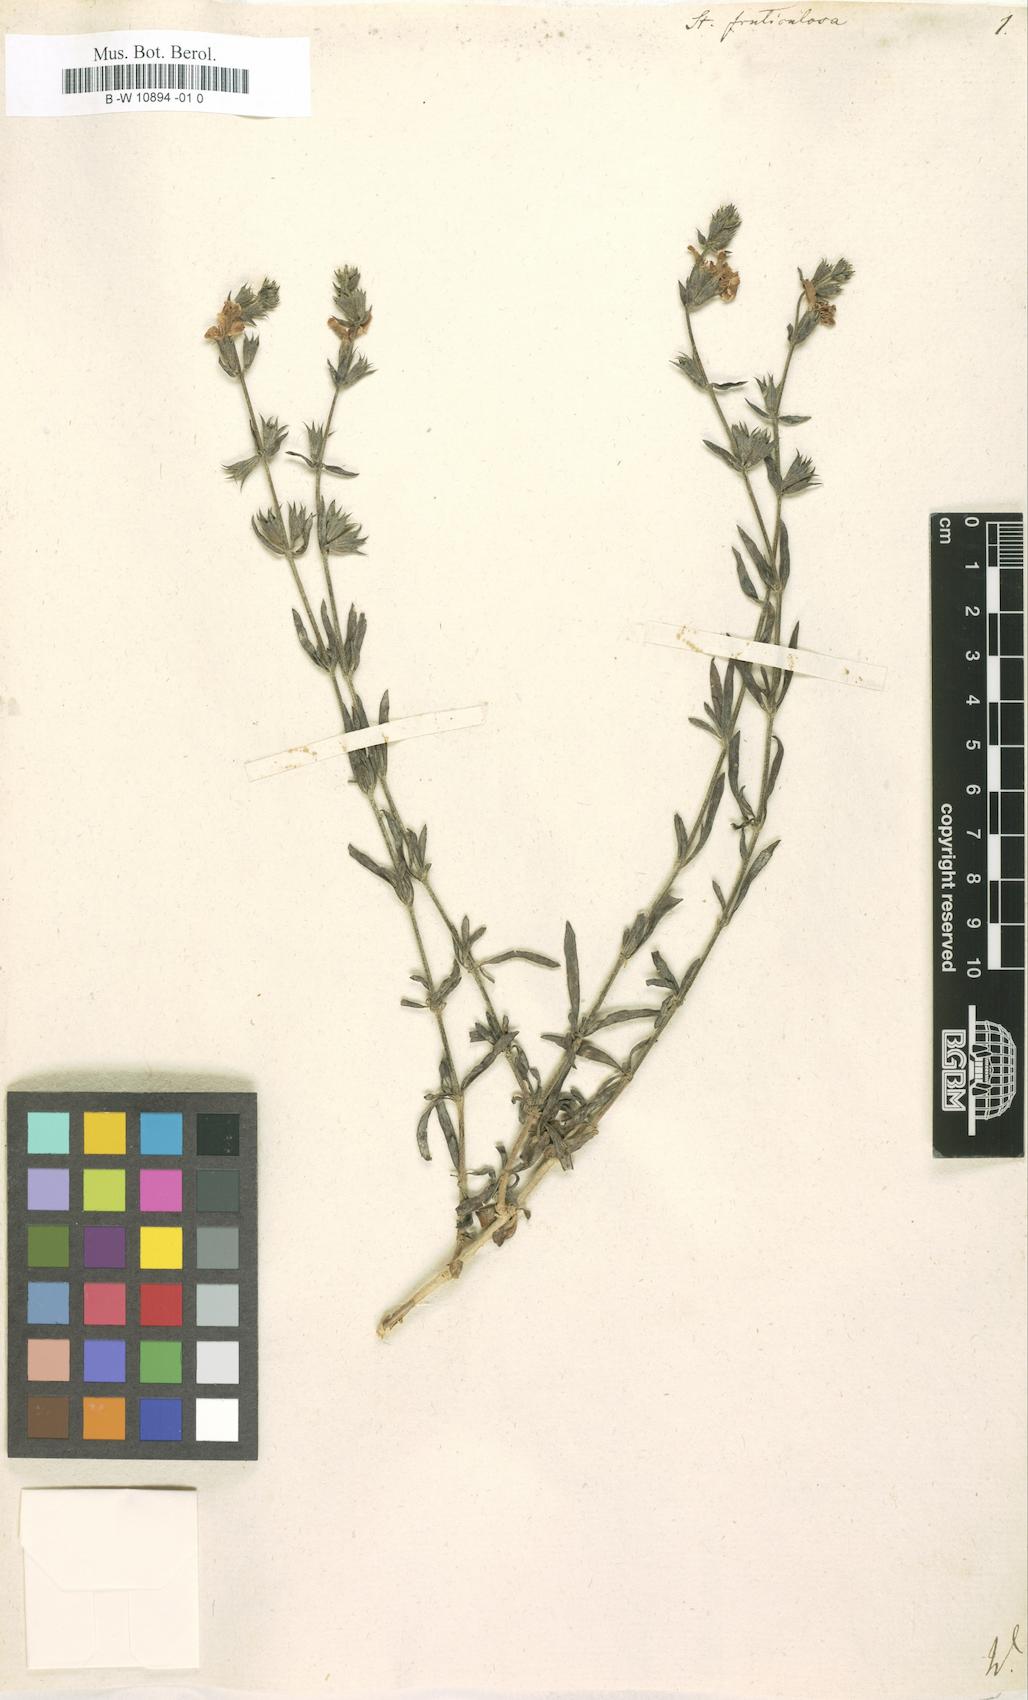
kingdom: Plantae
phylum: Tracheophyta
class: Magnoliopsida
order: Lamiales
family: Lamiaceae
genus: Stachys
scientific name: Stachys fruticulosa
